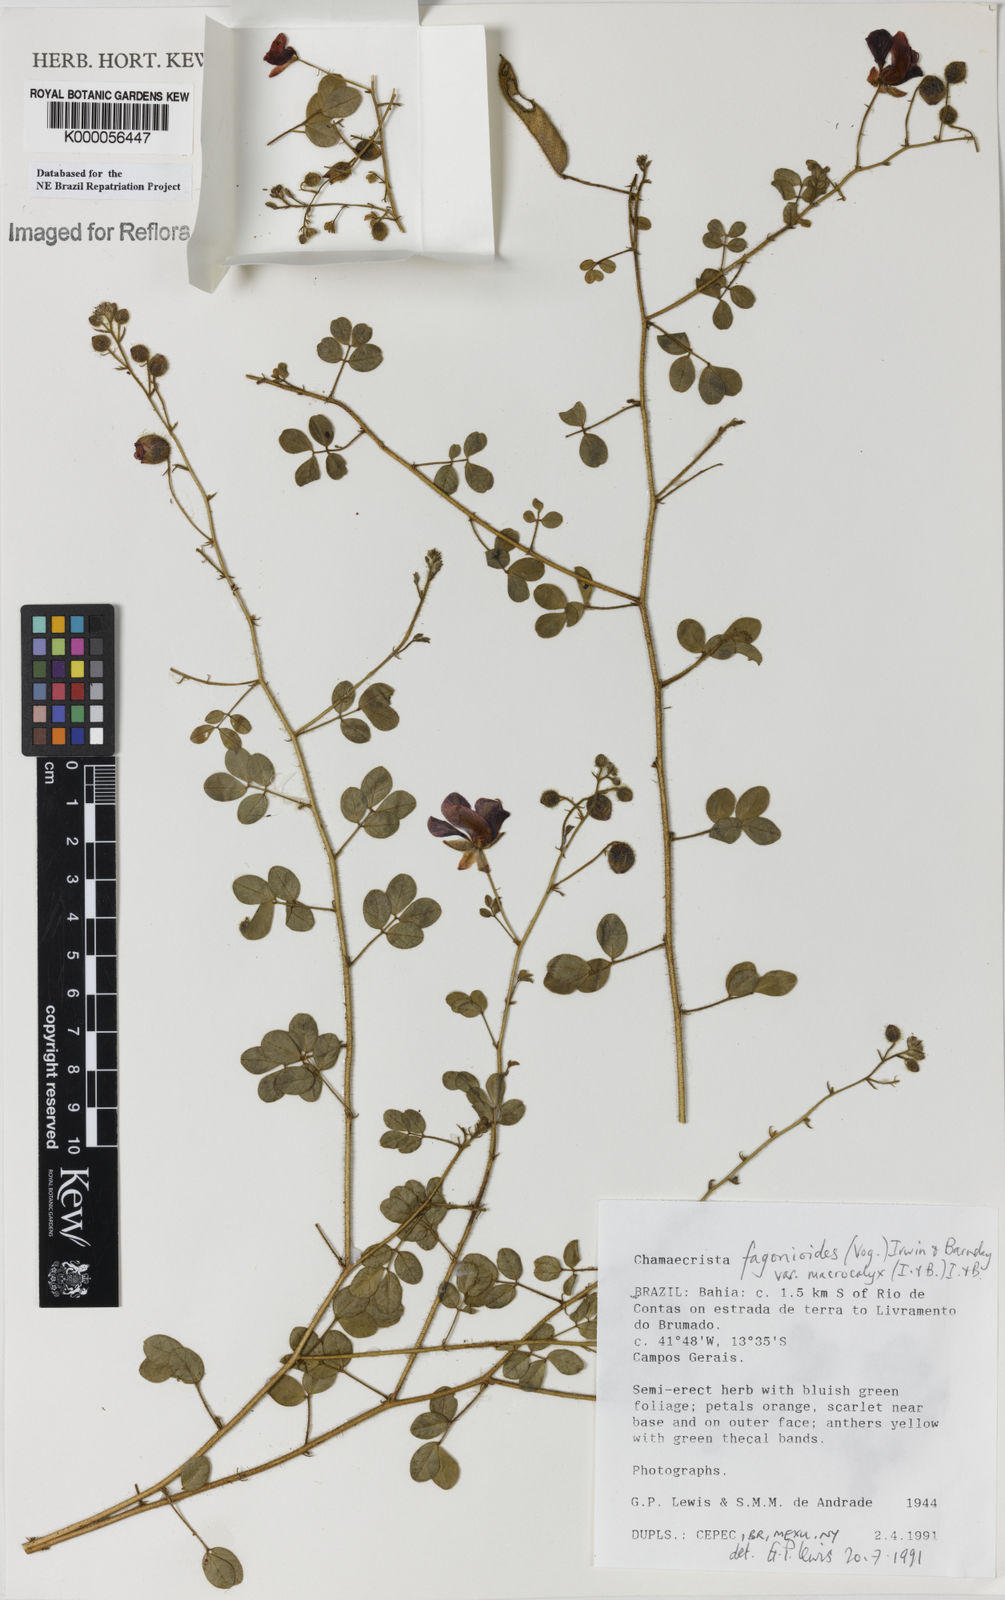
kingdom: Plantae
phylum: Tracheophyta
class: Magnoliopsida
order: Fabales
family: Fabaceae
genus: Chamaecrista
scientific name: Chamaecrista fagonioides
